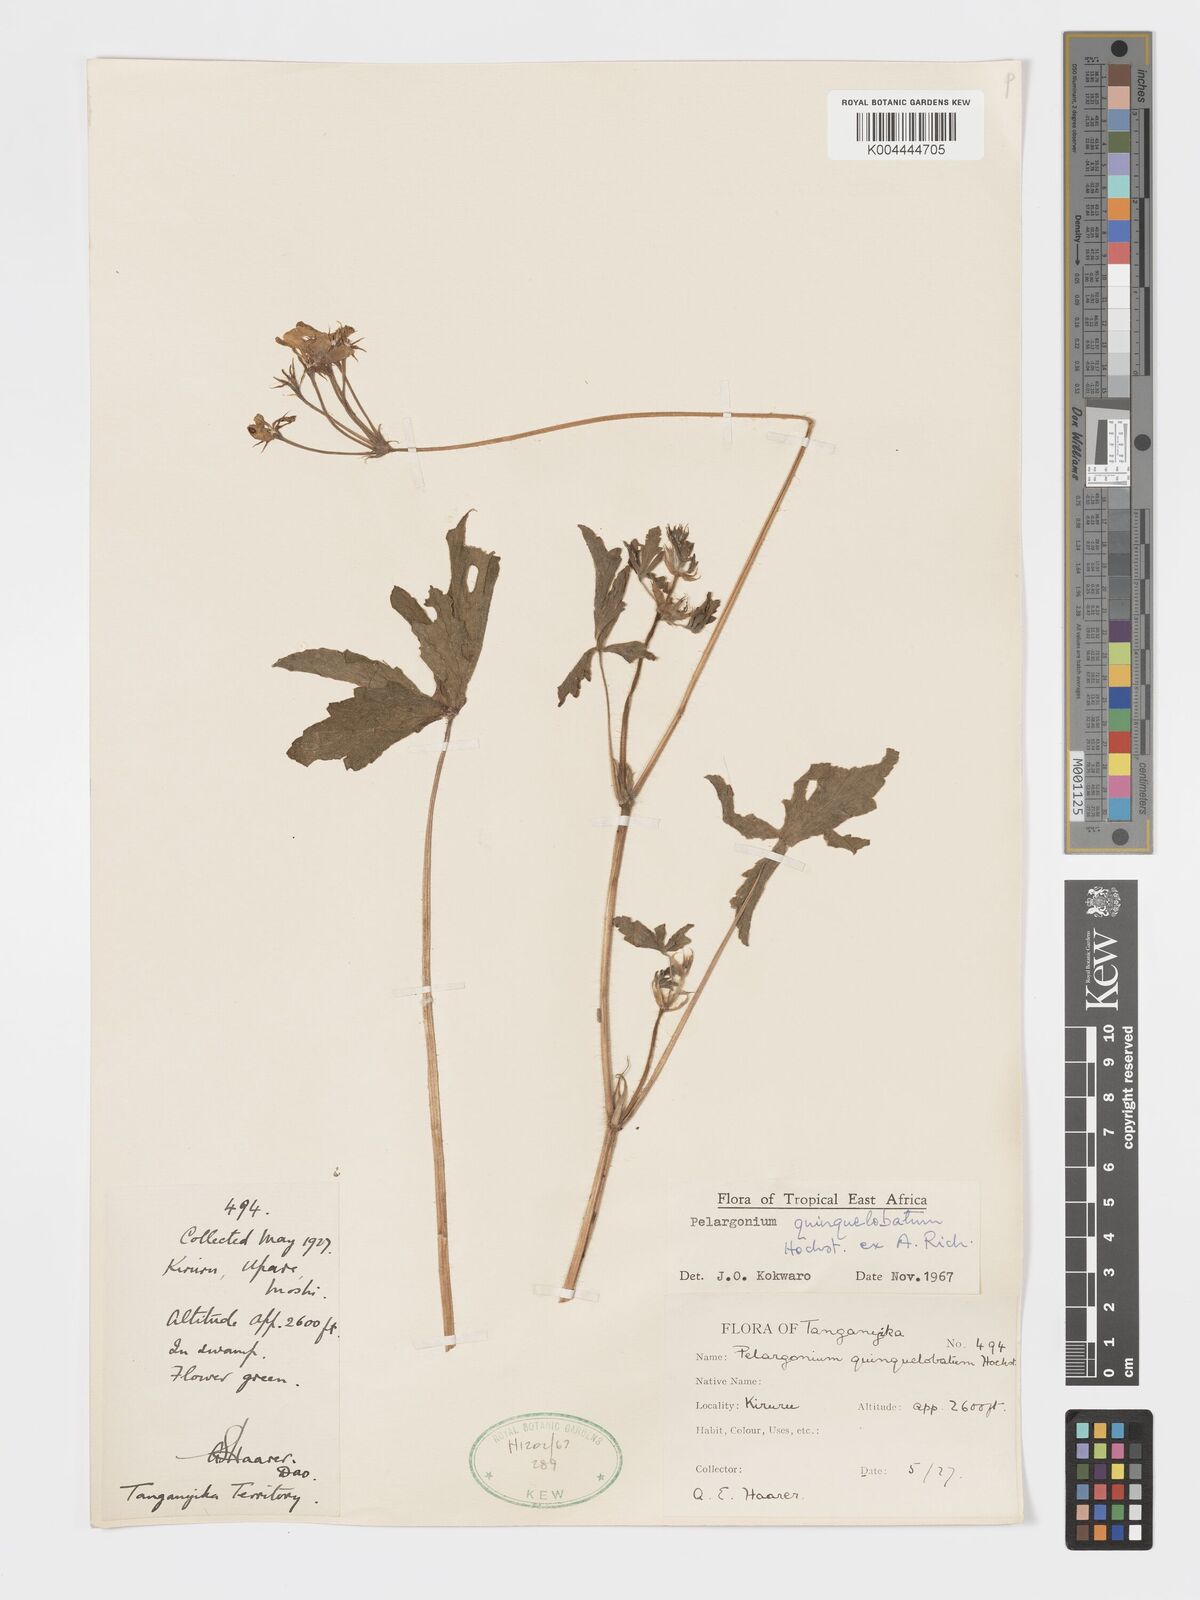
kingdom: Plantae
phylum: Tracheophyta
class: Magnoliopsida
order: Geraniales
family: Geraniaceae
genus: Pelargonium
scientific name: Pelargonium quinquelobatum
